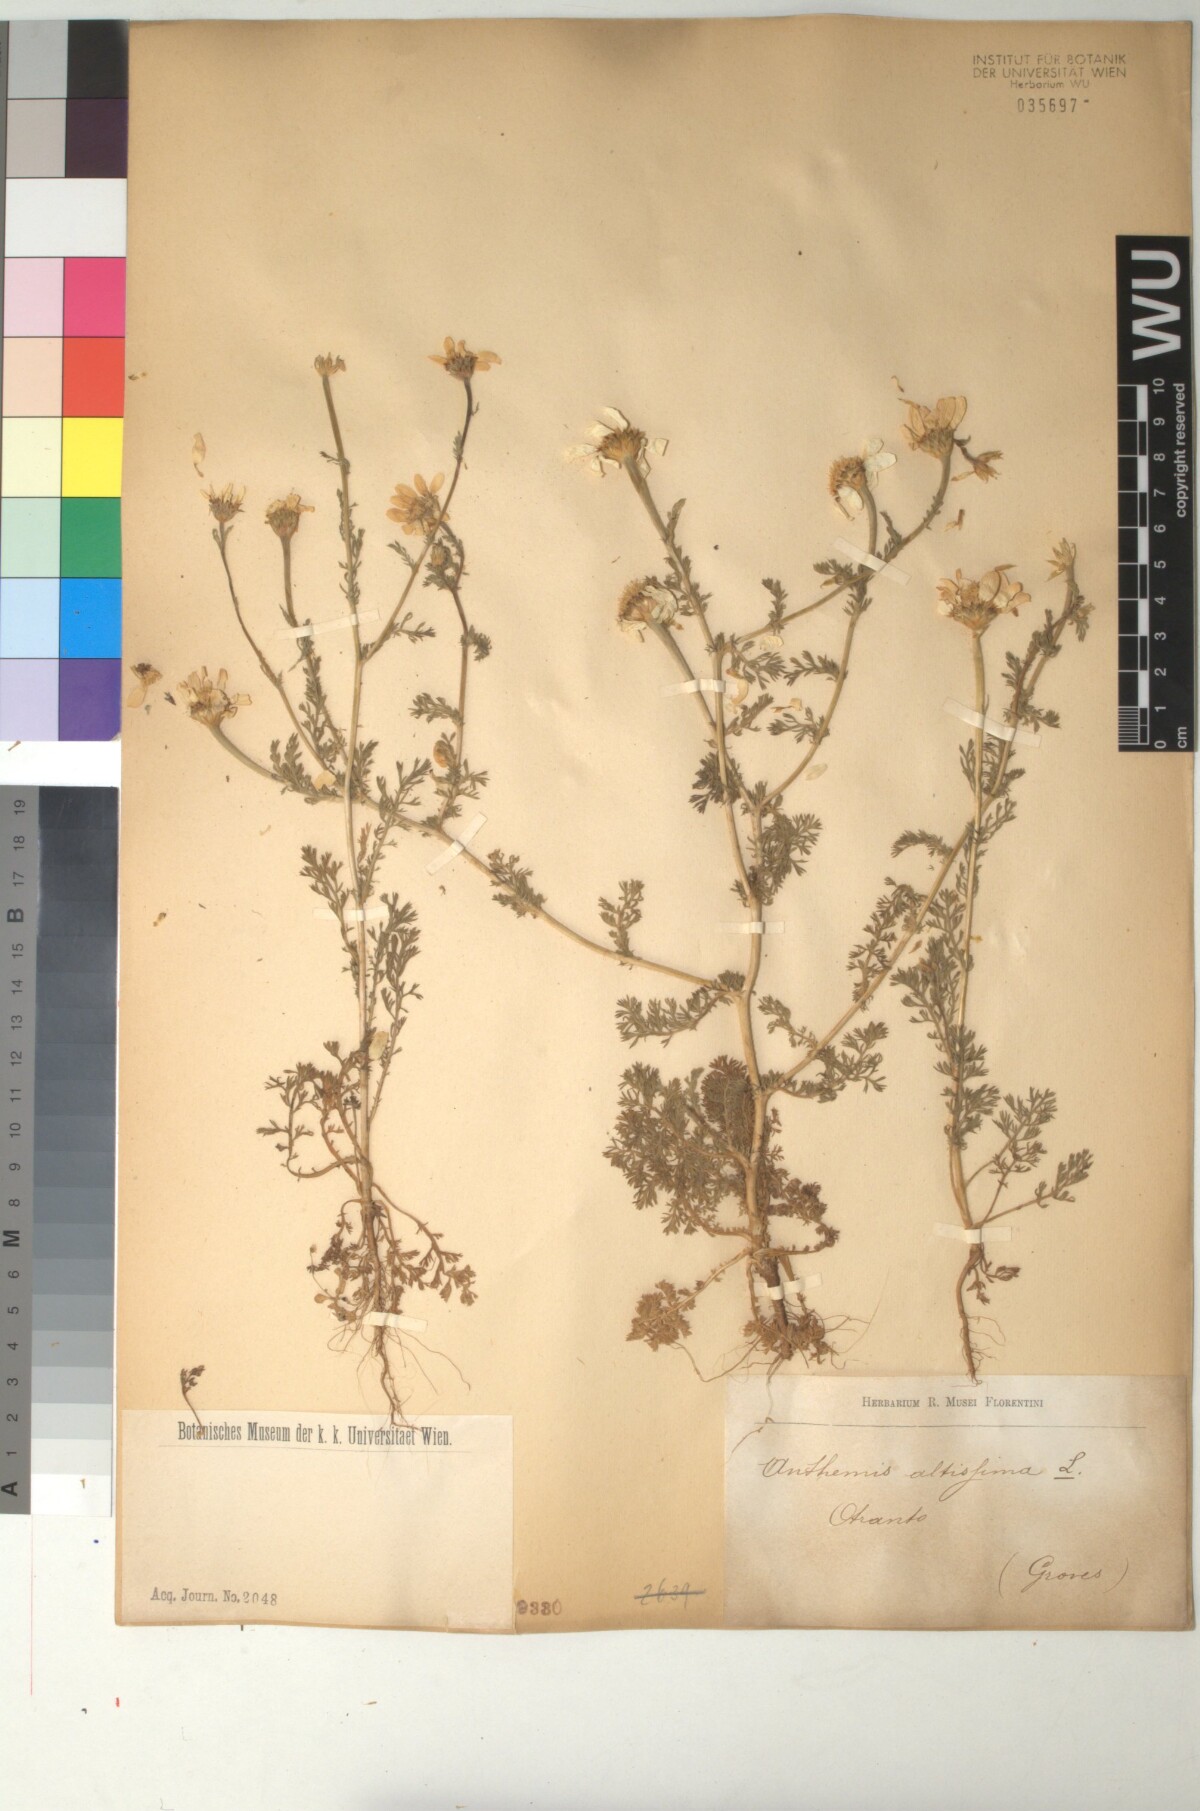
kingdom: Plantae
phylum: Tracheophyta
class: Magnoliopsida
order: Asterales
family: Asteraceae
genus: Cota
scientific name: Cota altissima
